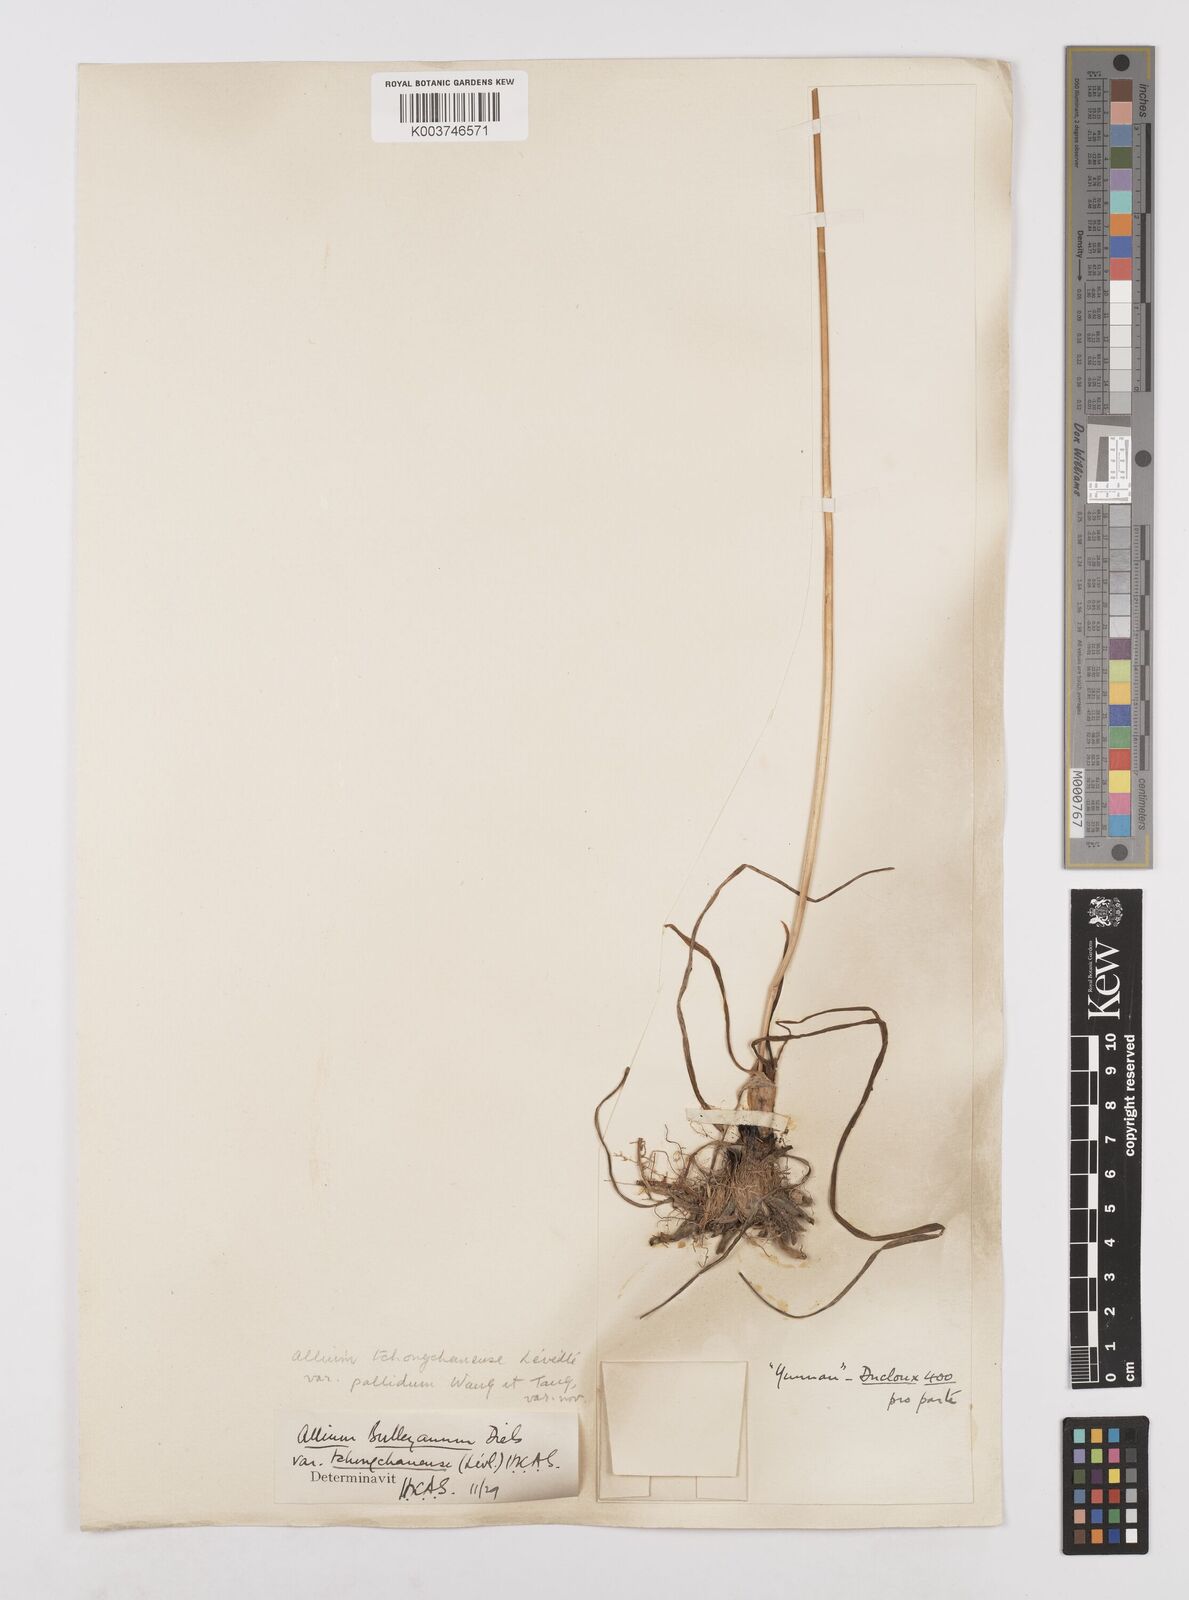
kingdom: Plantae
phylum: Tracheophyta
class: Liliopsida
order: Asparagales
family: Amaryllidaceae
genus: Allium
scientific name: Allium wallichii
